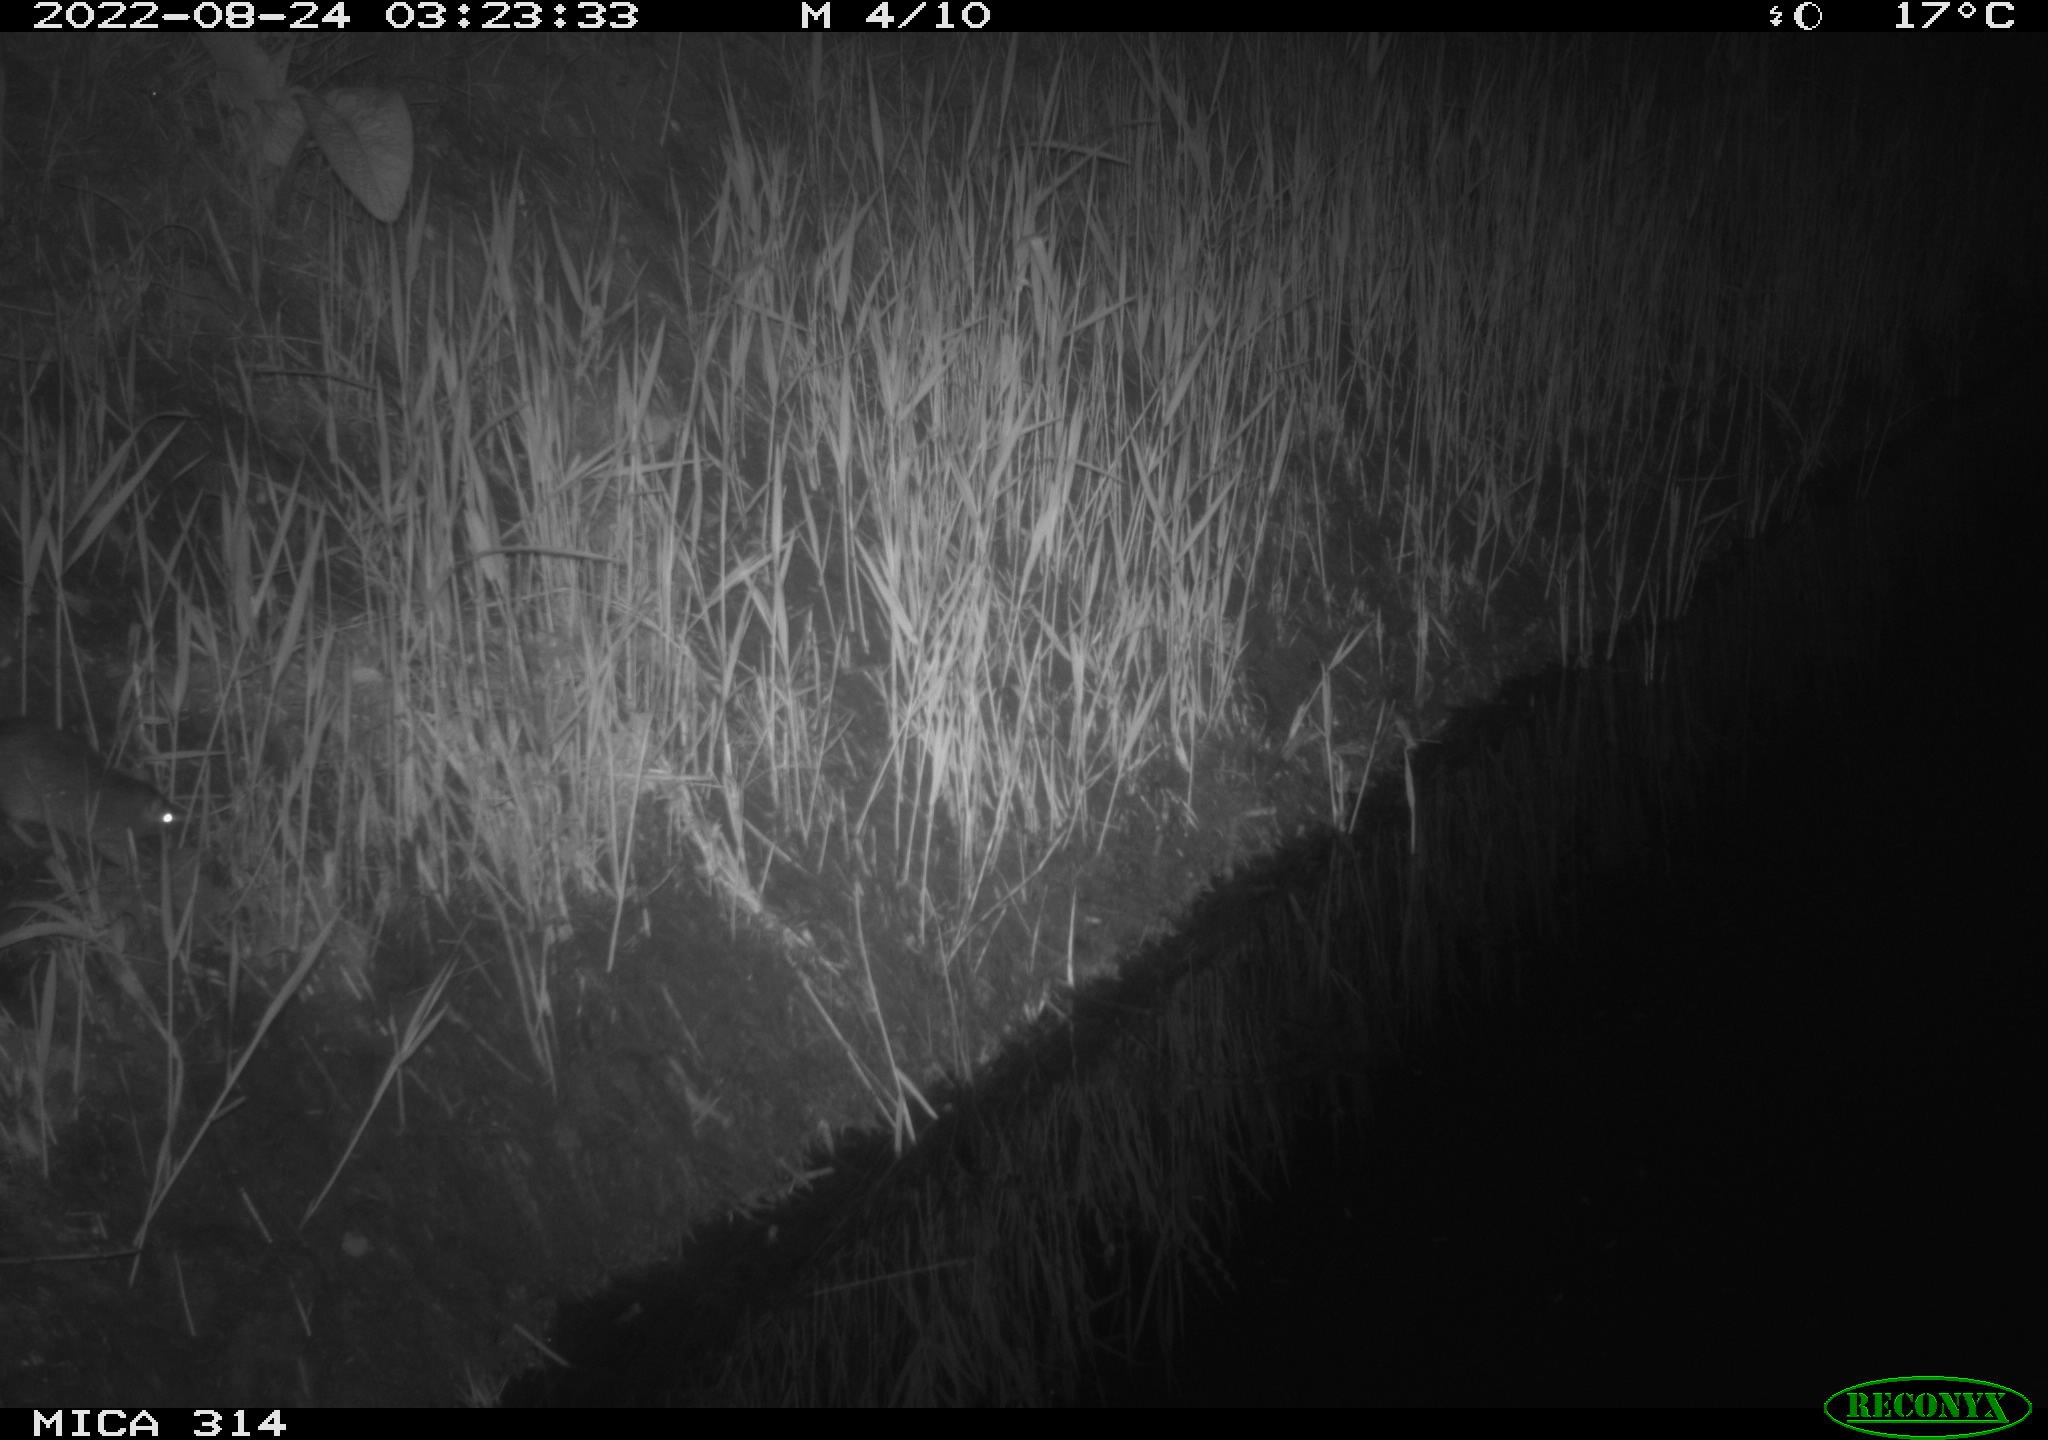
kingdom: Animalia
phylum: Chordata
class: Mammalia
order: Rodentia
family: Muridae
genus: Rattus
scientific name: Rattus norvegicus
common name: Brown rat
